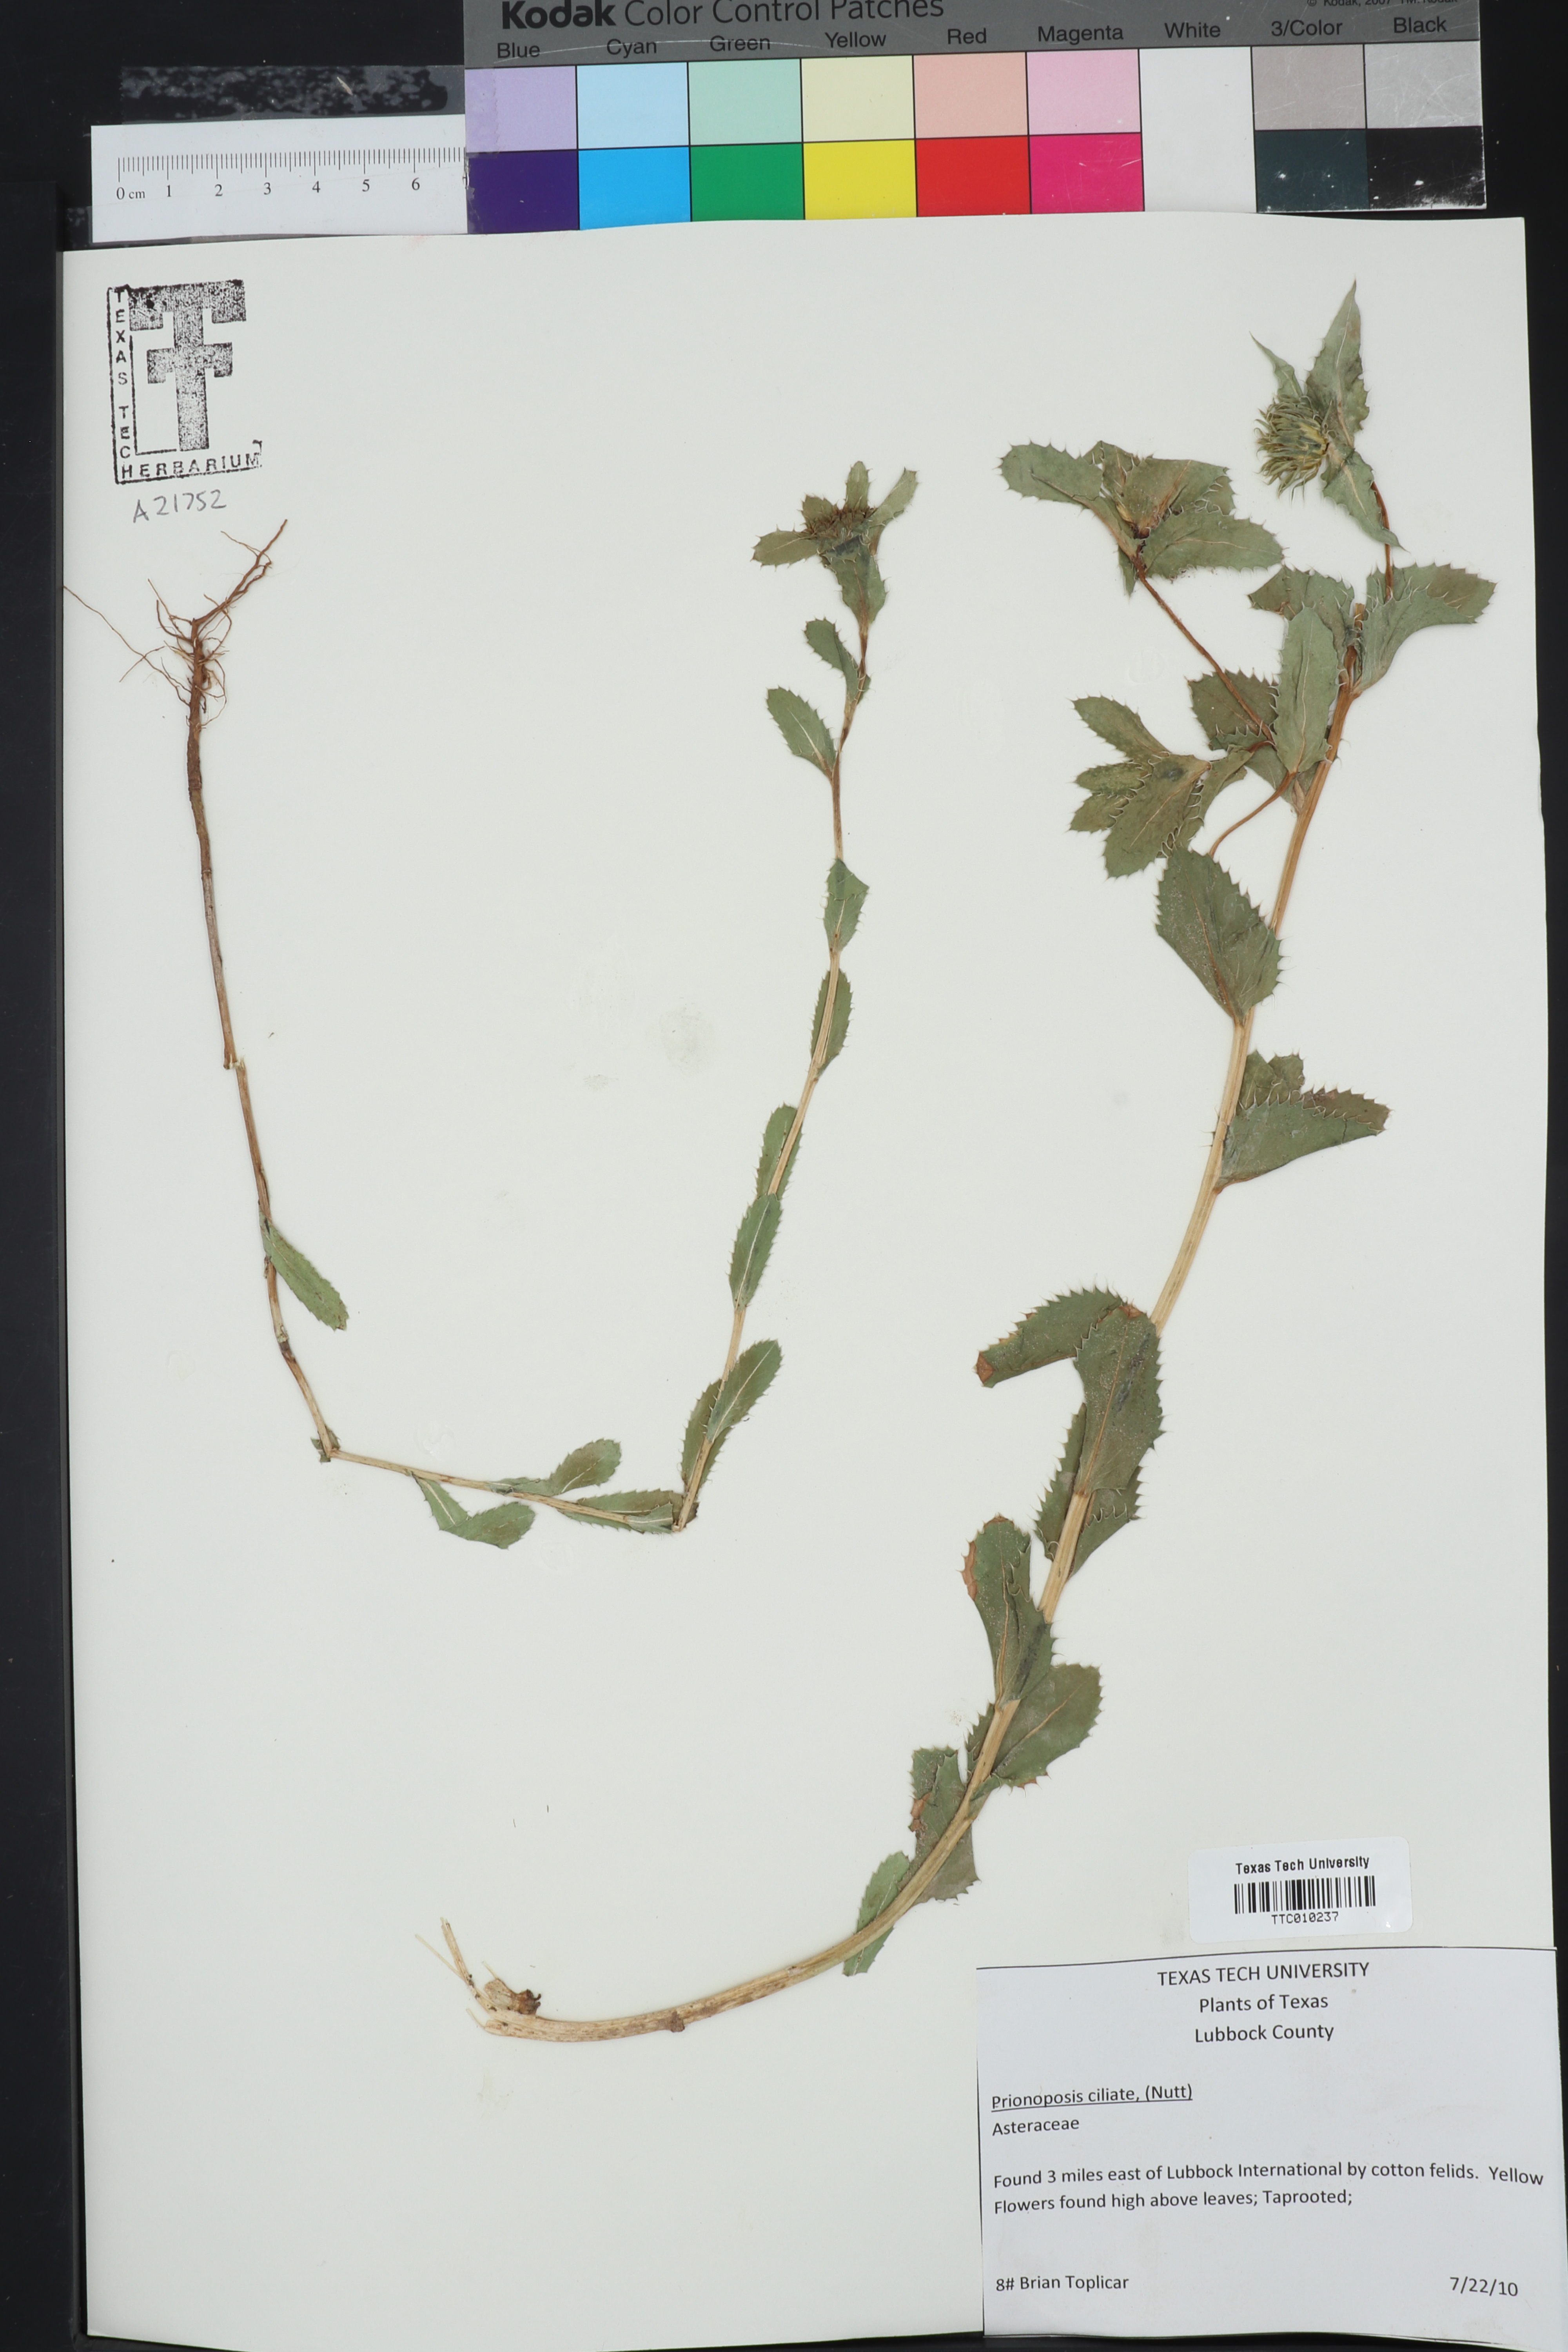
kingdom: Plantae
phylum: Tracheophyta
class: Magnoliopsida
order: Asterales
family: Asteraceae
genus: Grindelia
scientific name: Grindelia ciliata
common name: Goldenweed
